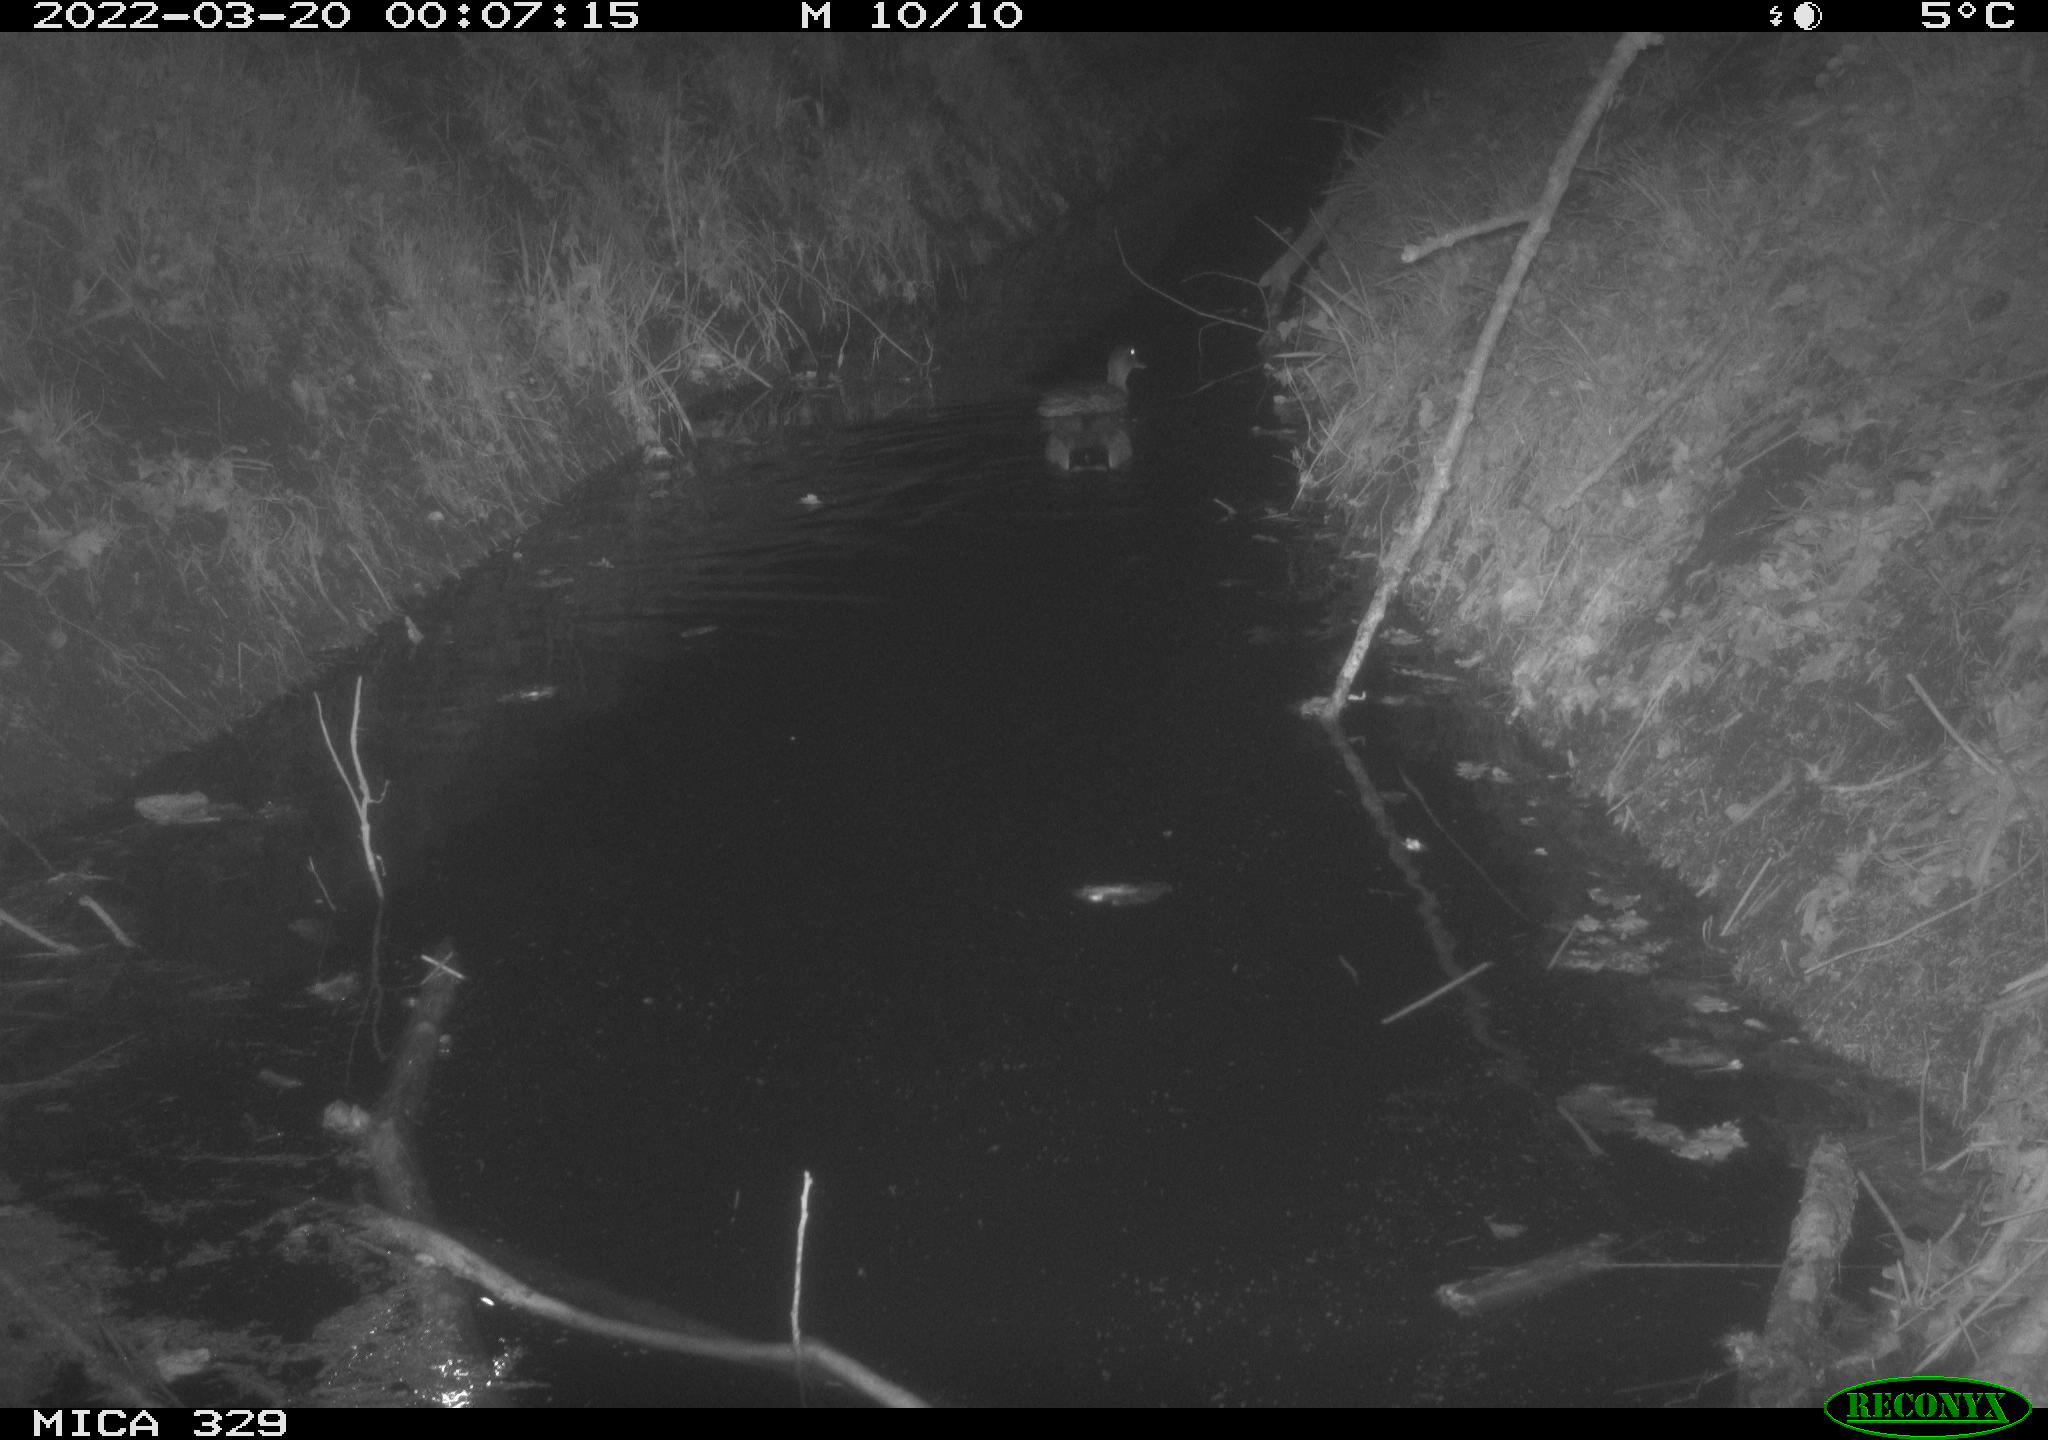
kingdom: Animalia
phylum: Chordata
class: Aves
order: Anseriformes
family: Anatidae
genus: Anas
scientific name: Anas platyrhynchos
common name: Mallard
